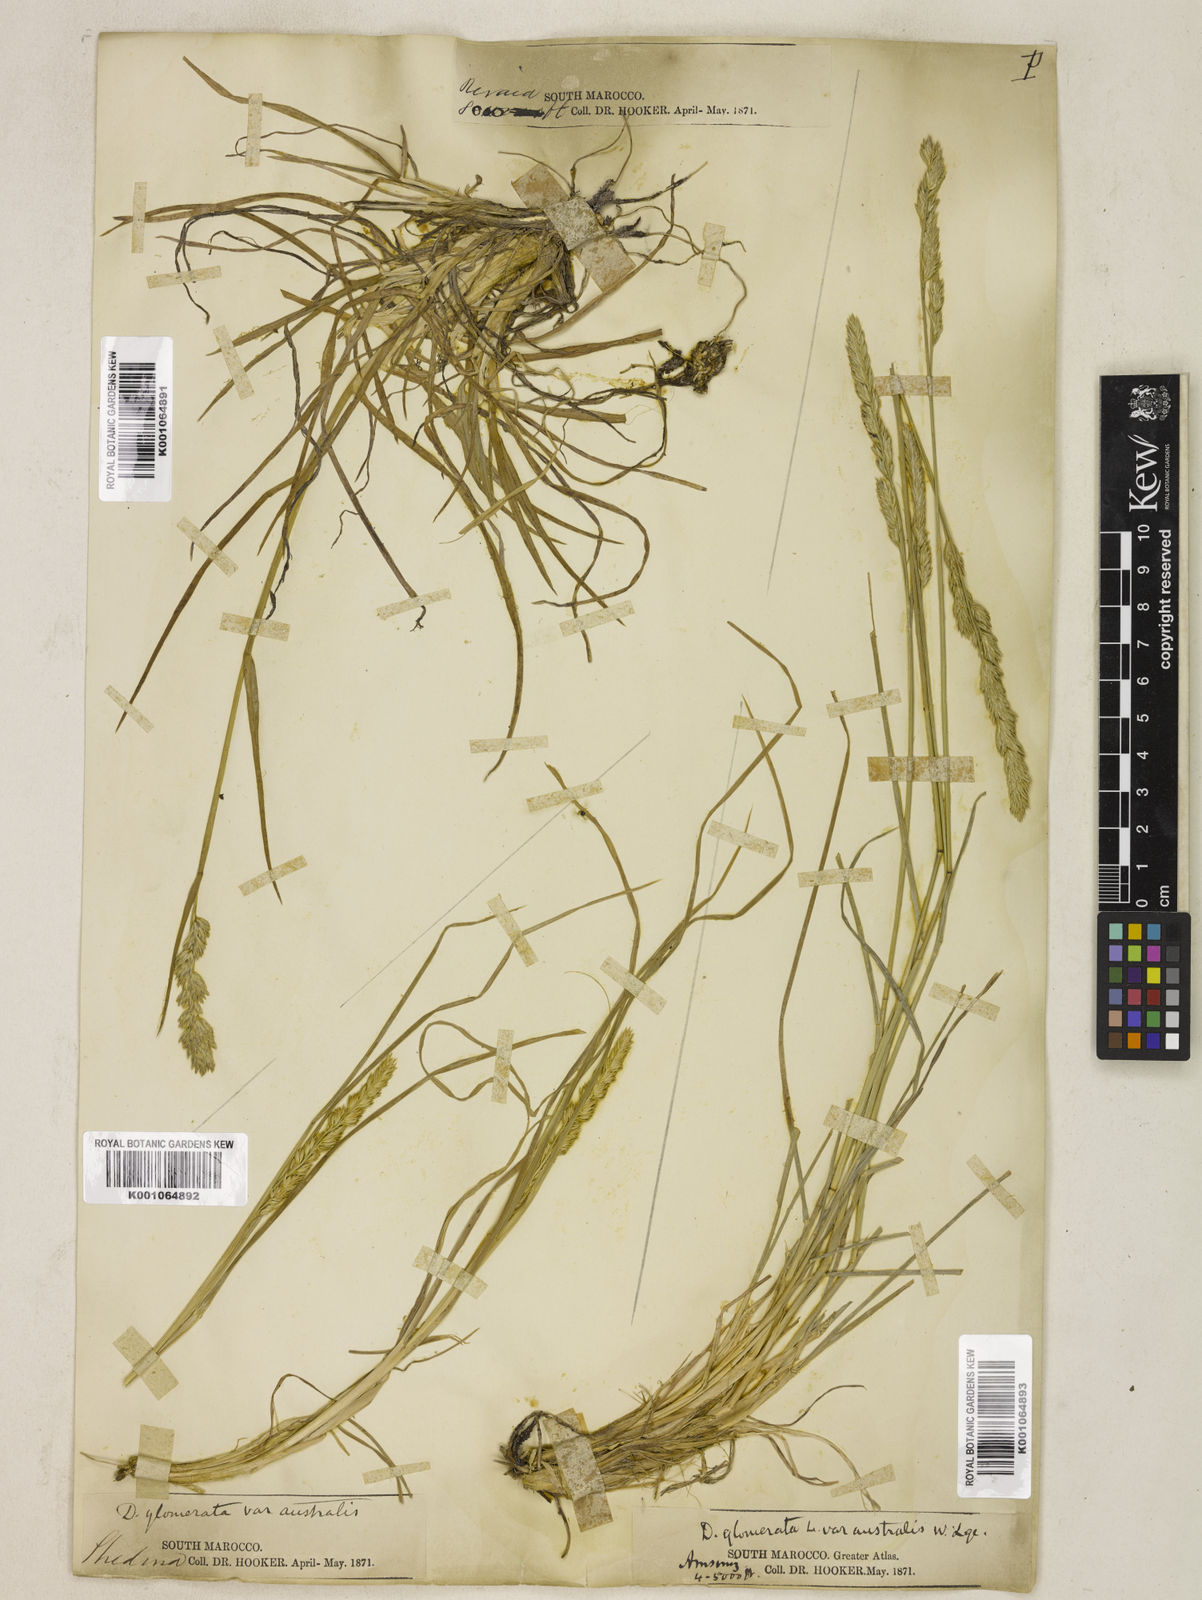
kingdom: Plantae
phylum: Tracheophyta
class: Liliopsida
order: Poales
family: Poaceae
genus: Dactylis
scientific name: Dactylis glomerata
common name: Orchardgrass
